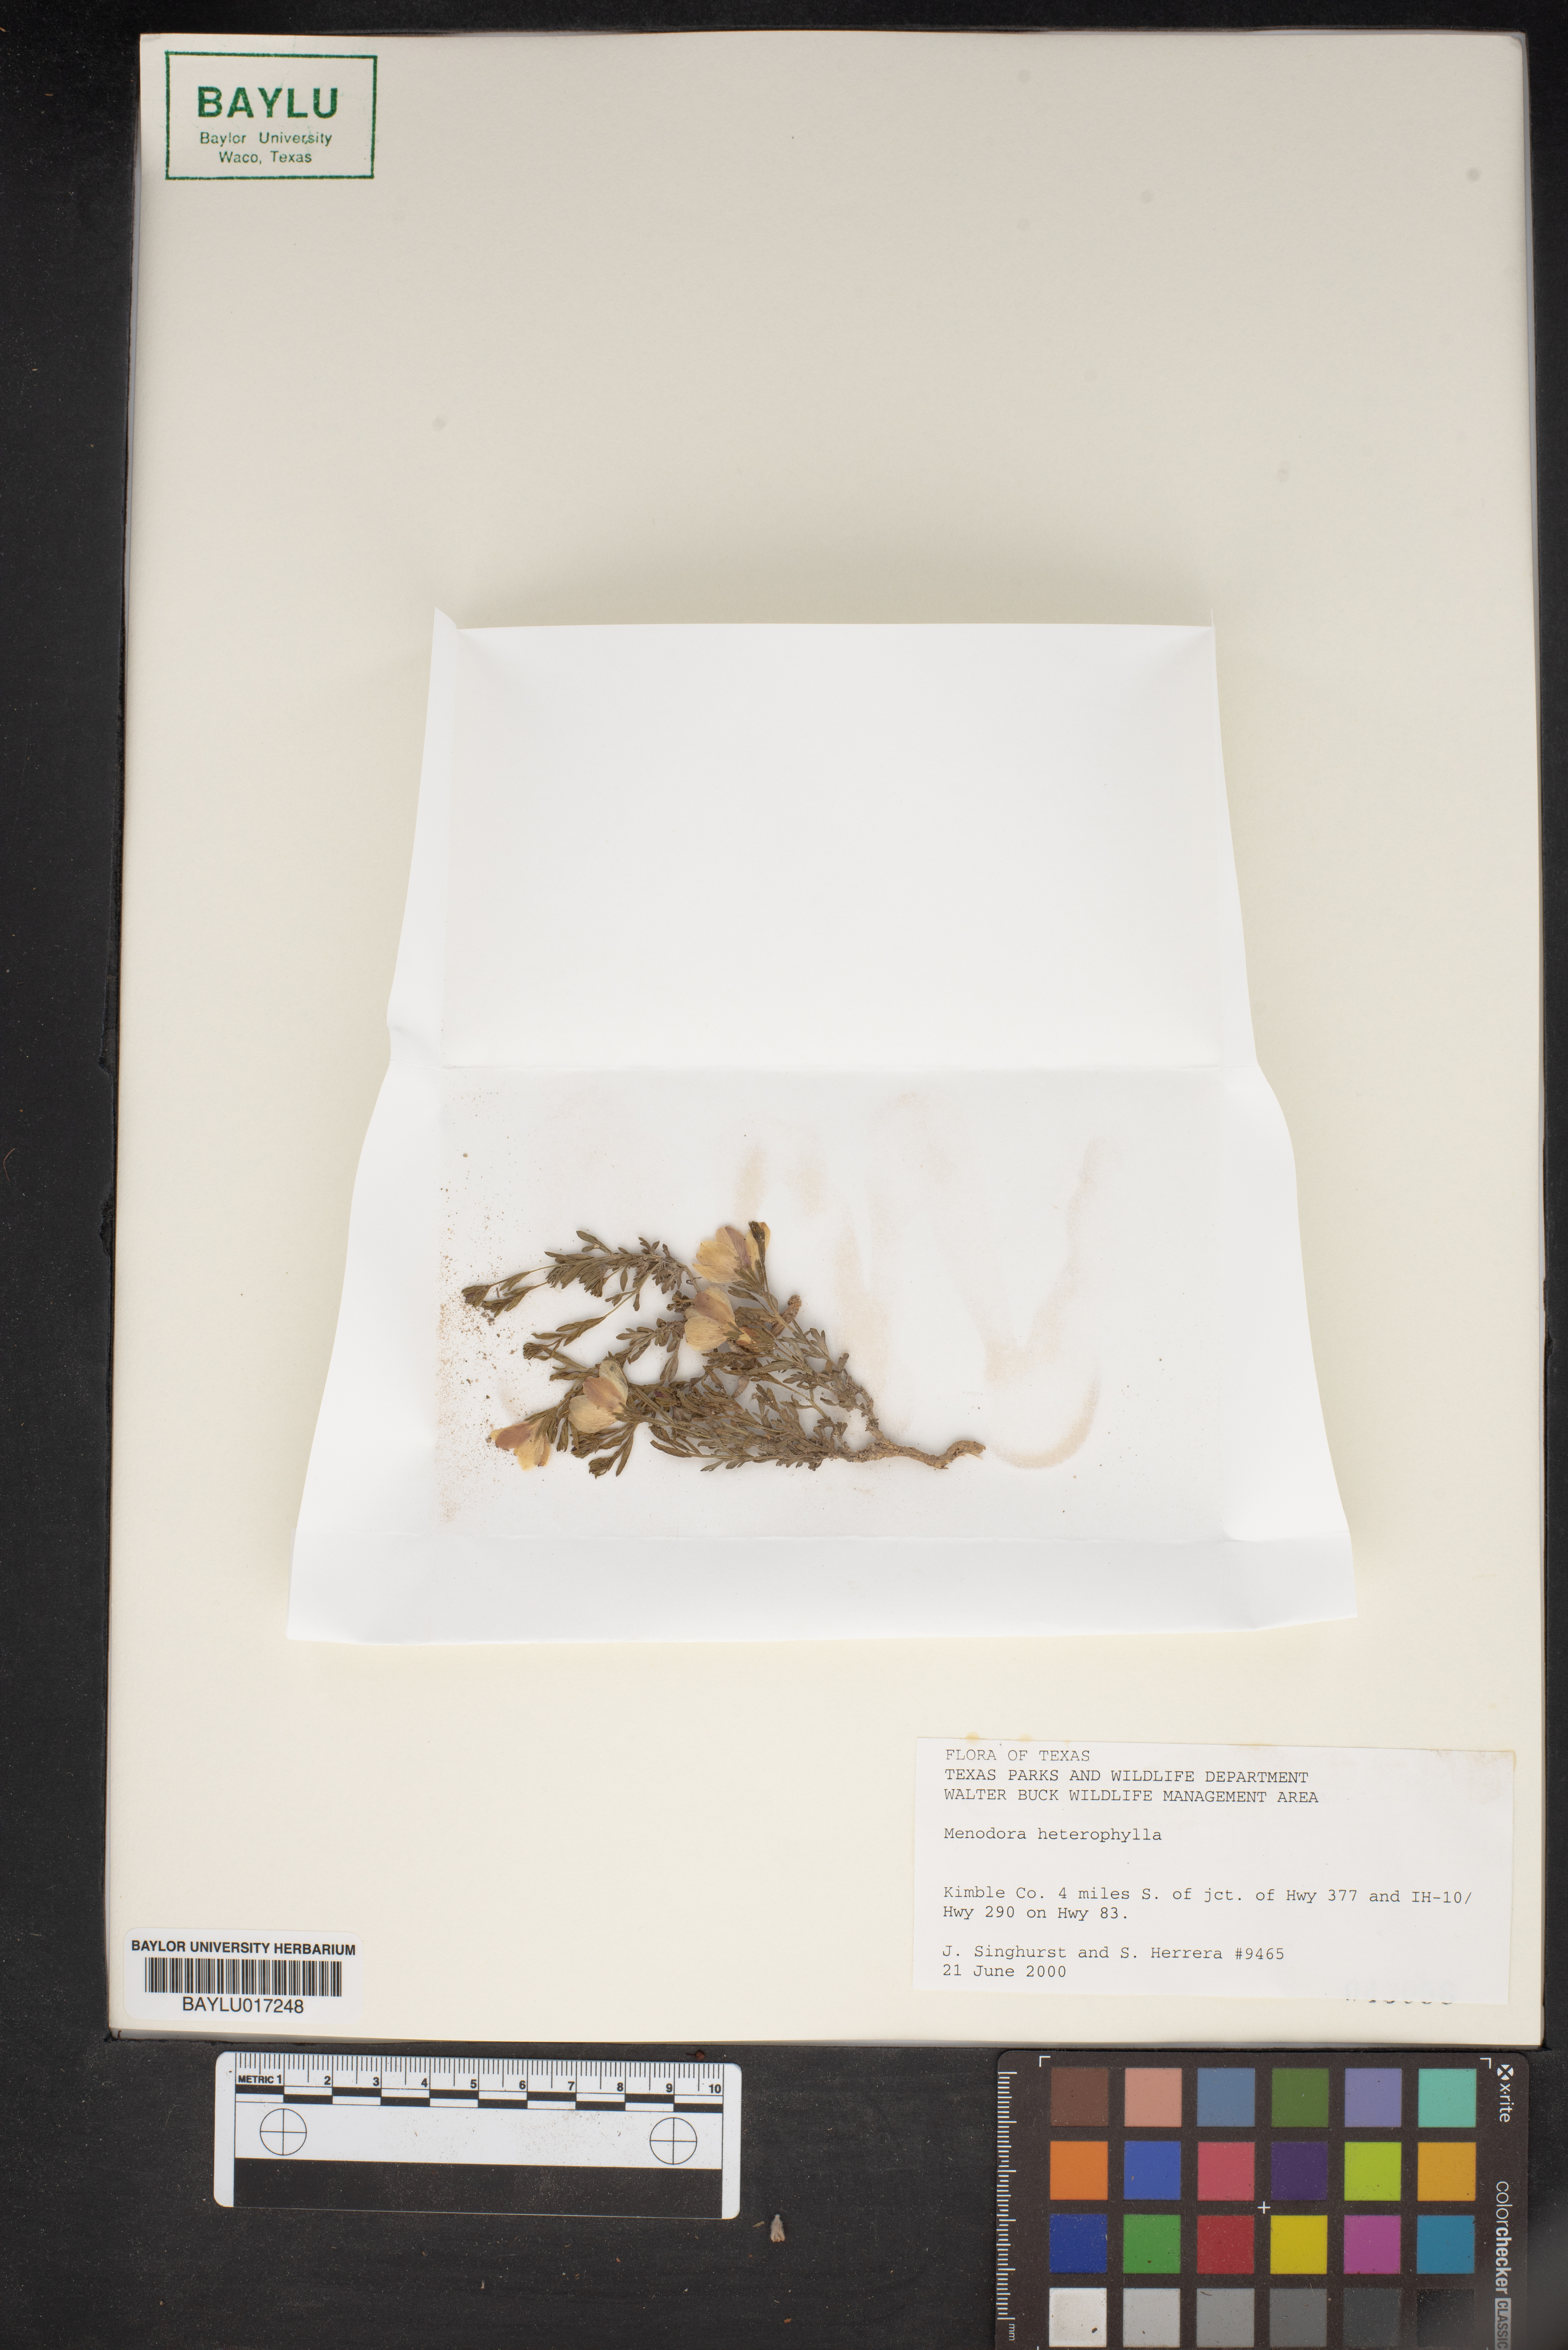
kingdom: Plantae
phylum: Tracheophyta
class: Magnoliopsida
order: Lamiales
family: Oleaceae
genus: Menodora
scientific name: Menodora heterophylla
